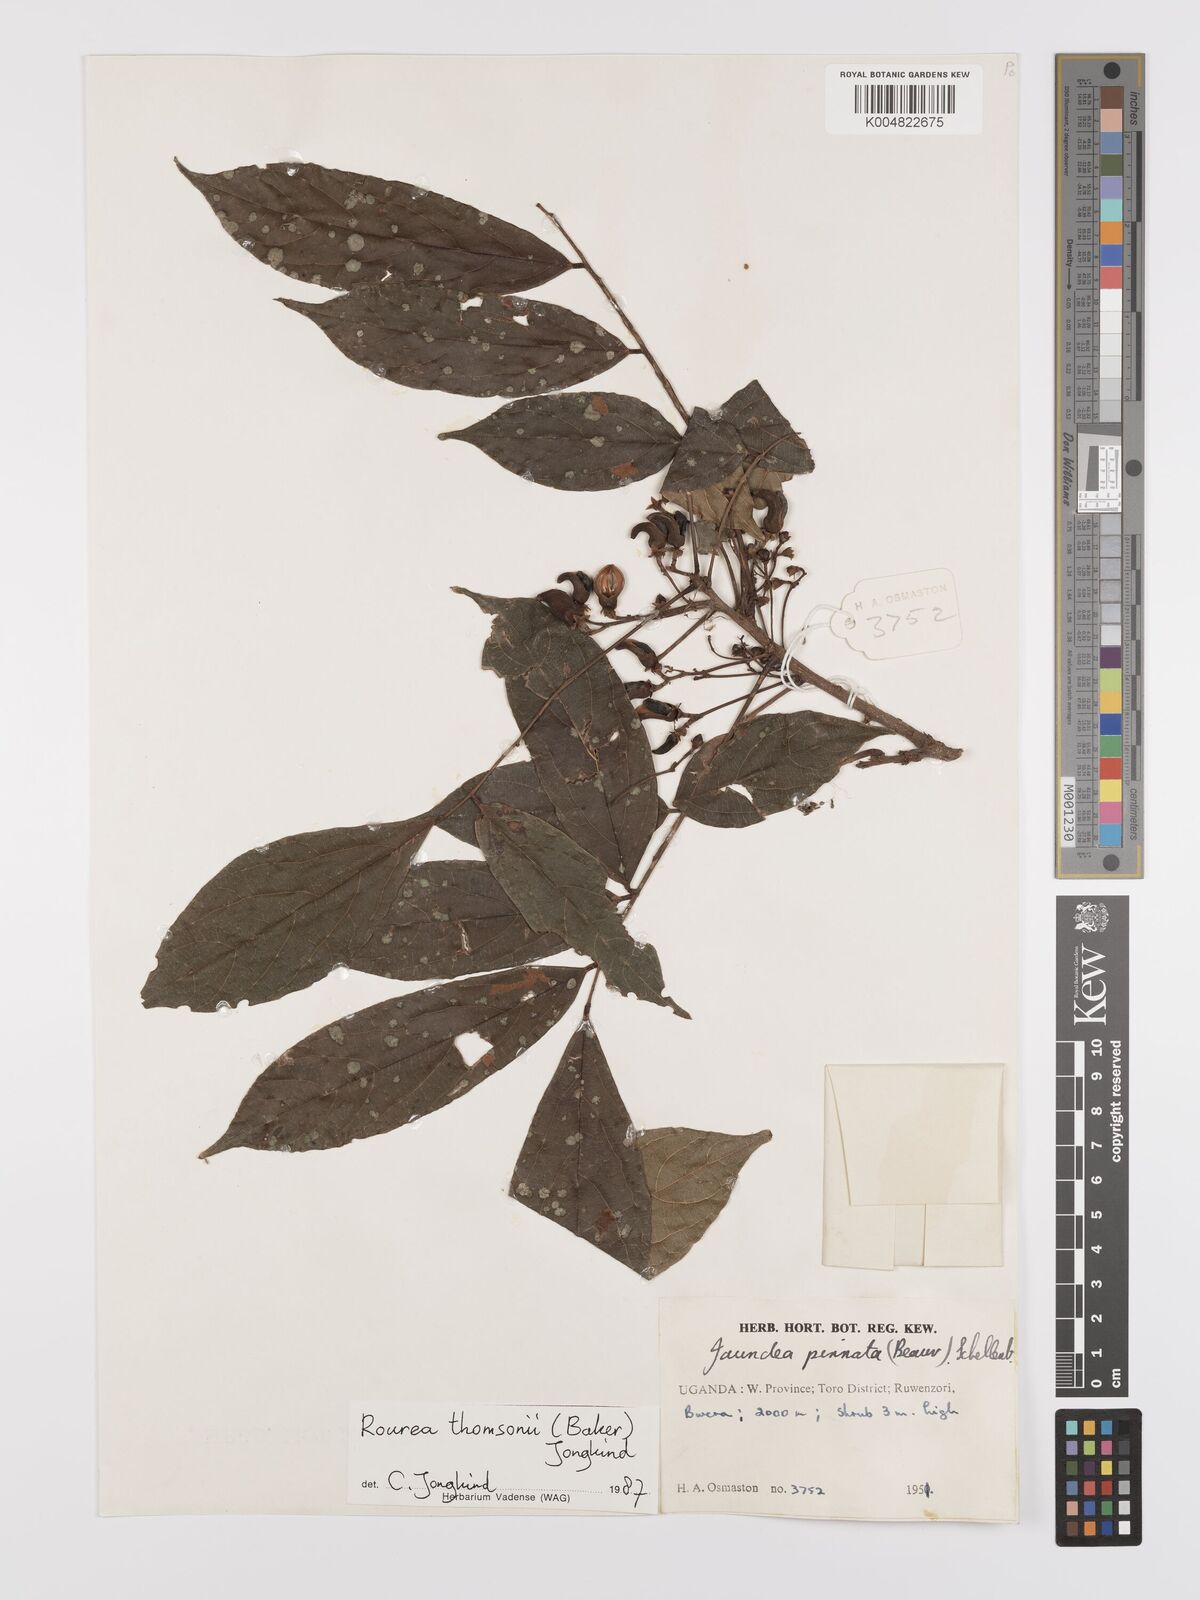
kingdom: Plantae
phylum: Tracheophyta
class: Magnoliopsida
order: Oxalidales
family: Connaraceae
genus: Rourea
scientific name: Rourea pinnata
